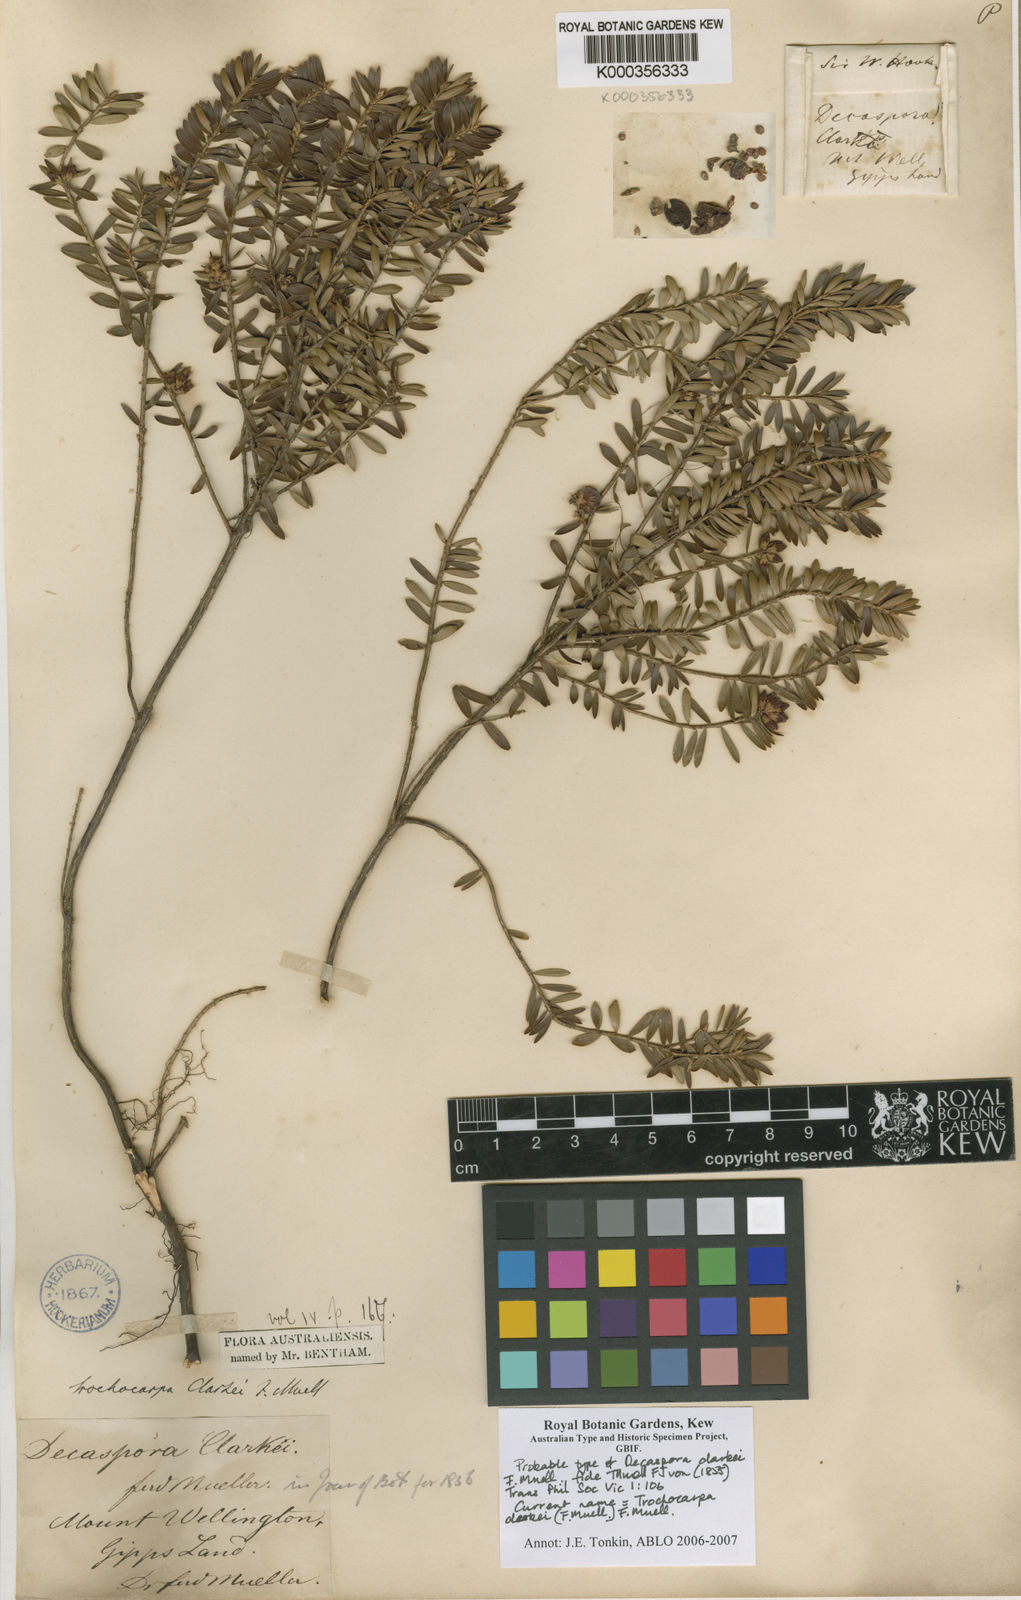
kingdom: Plantae
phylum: Tracheophyta
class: Magnoliopsida
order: Ericales
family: Ericaceae
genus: Trochocarpa
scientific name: Trochocarpa clarkei
